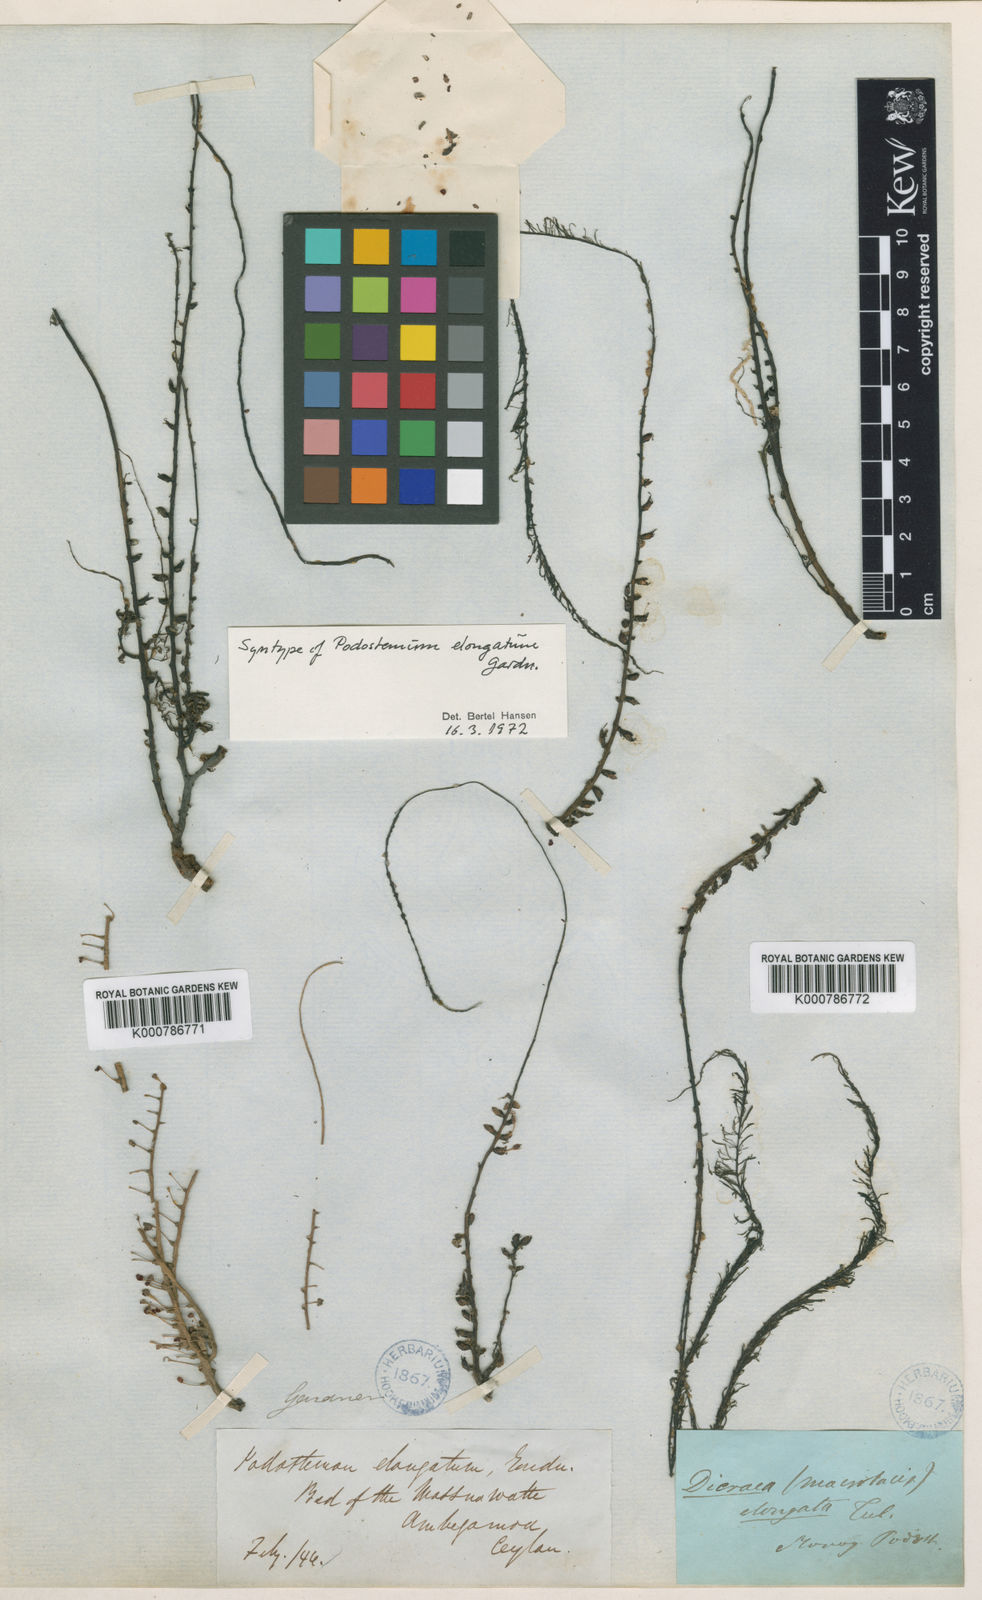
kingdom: Plantae
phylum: Tracheophyta
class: Magnoliopsida
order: Malpighiales
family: Podostemaceae
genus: Polypleurum
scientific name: Polypleurum elongatum
